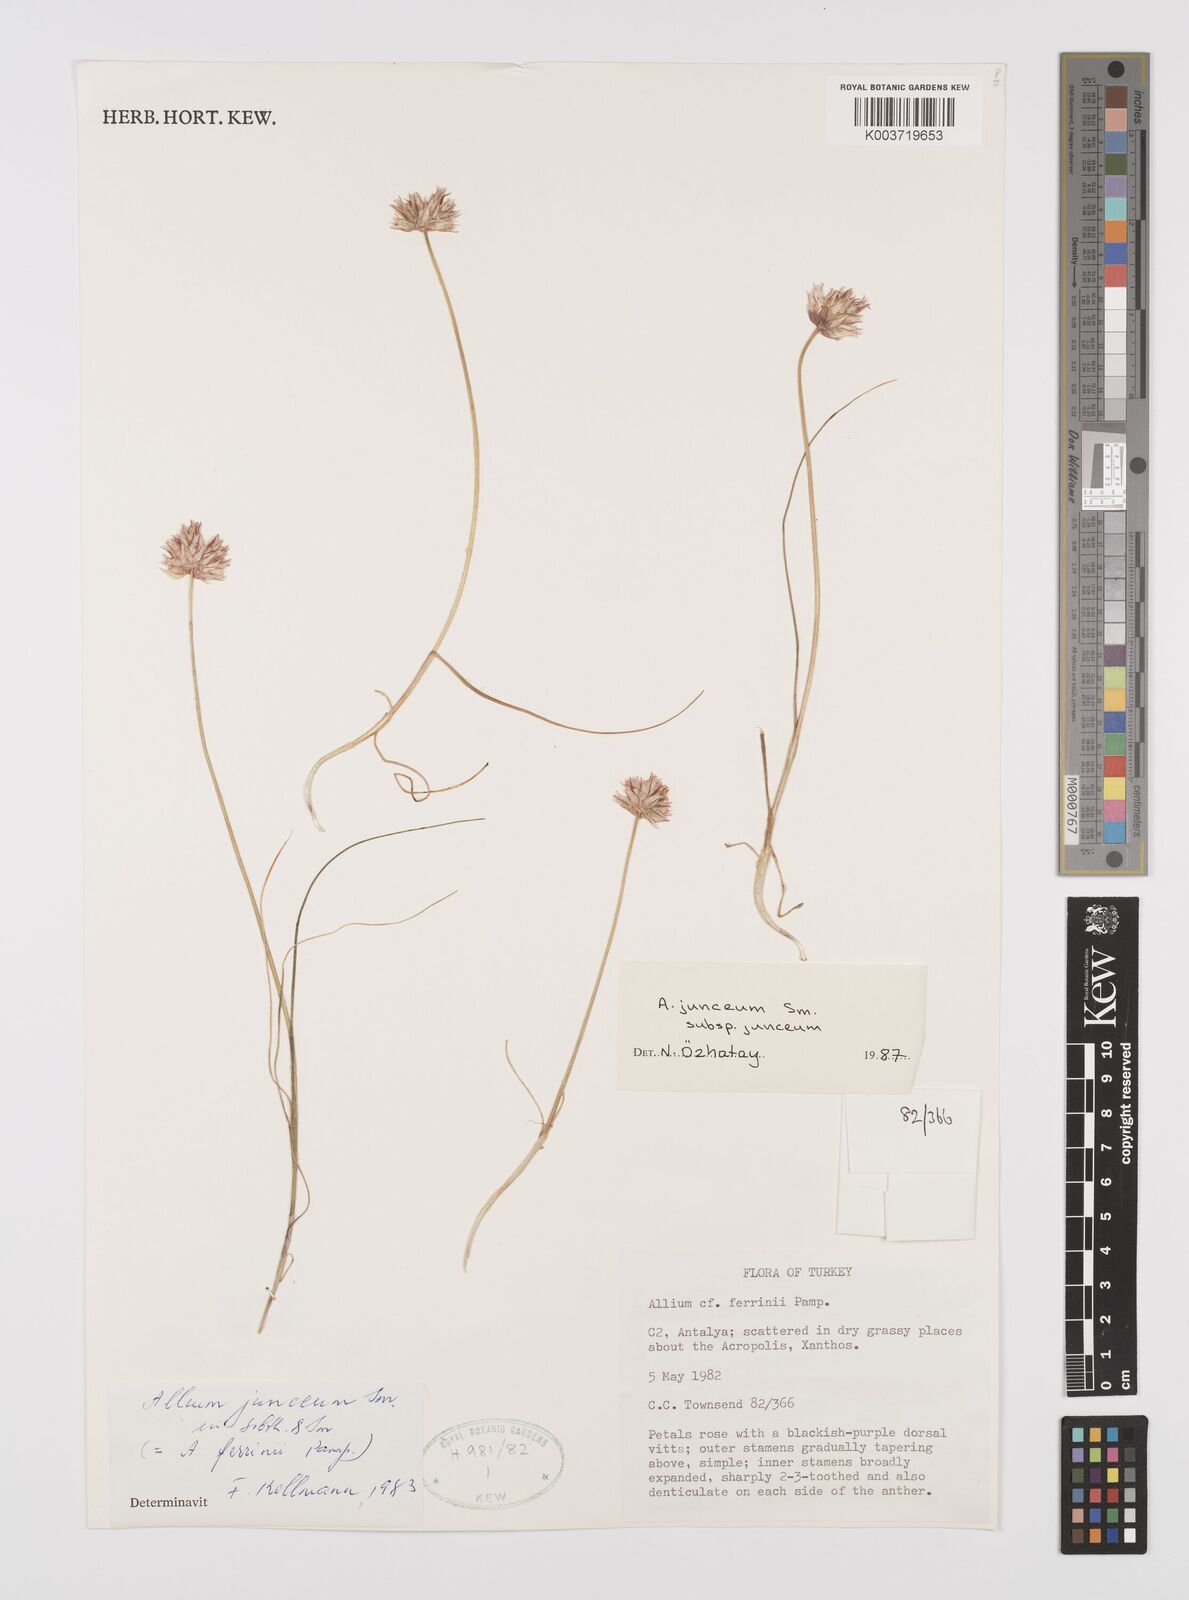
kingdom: Plantae
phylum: Tracheophyta
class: Liliopsida
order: Asparagales
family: Amaryllidaceae
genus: Allium
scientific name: Allium junceum
